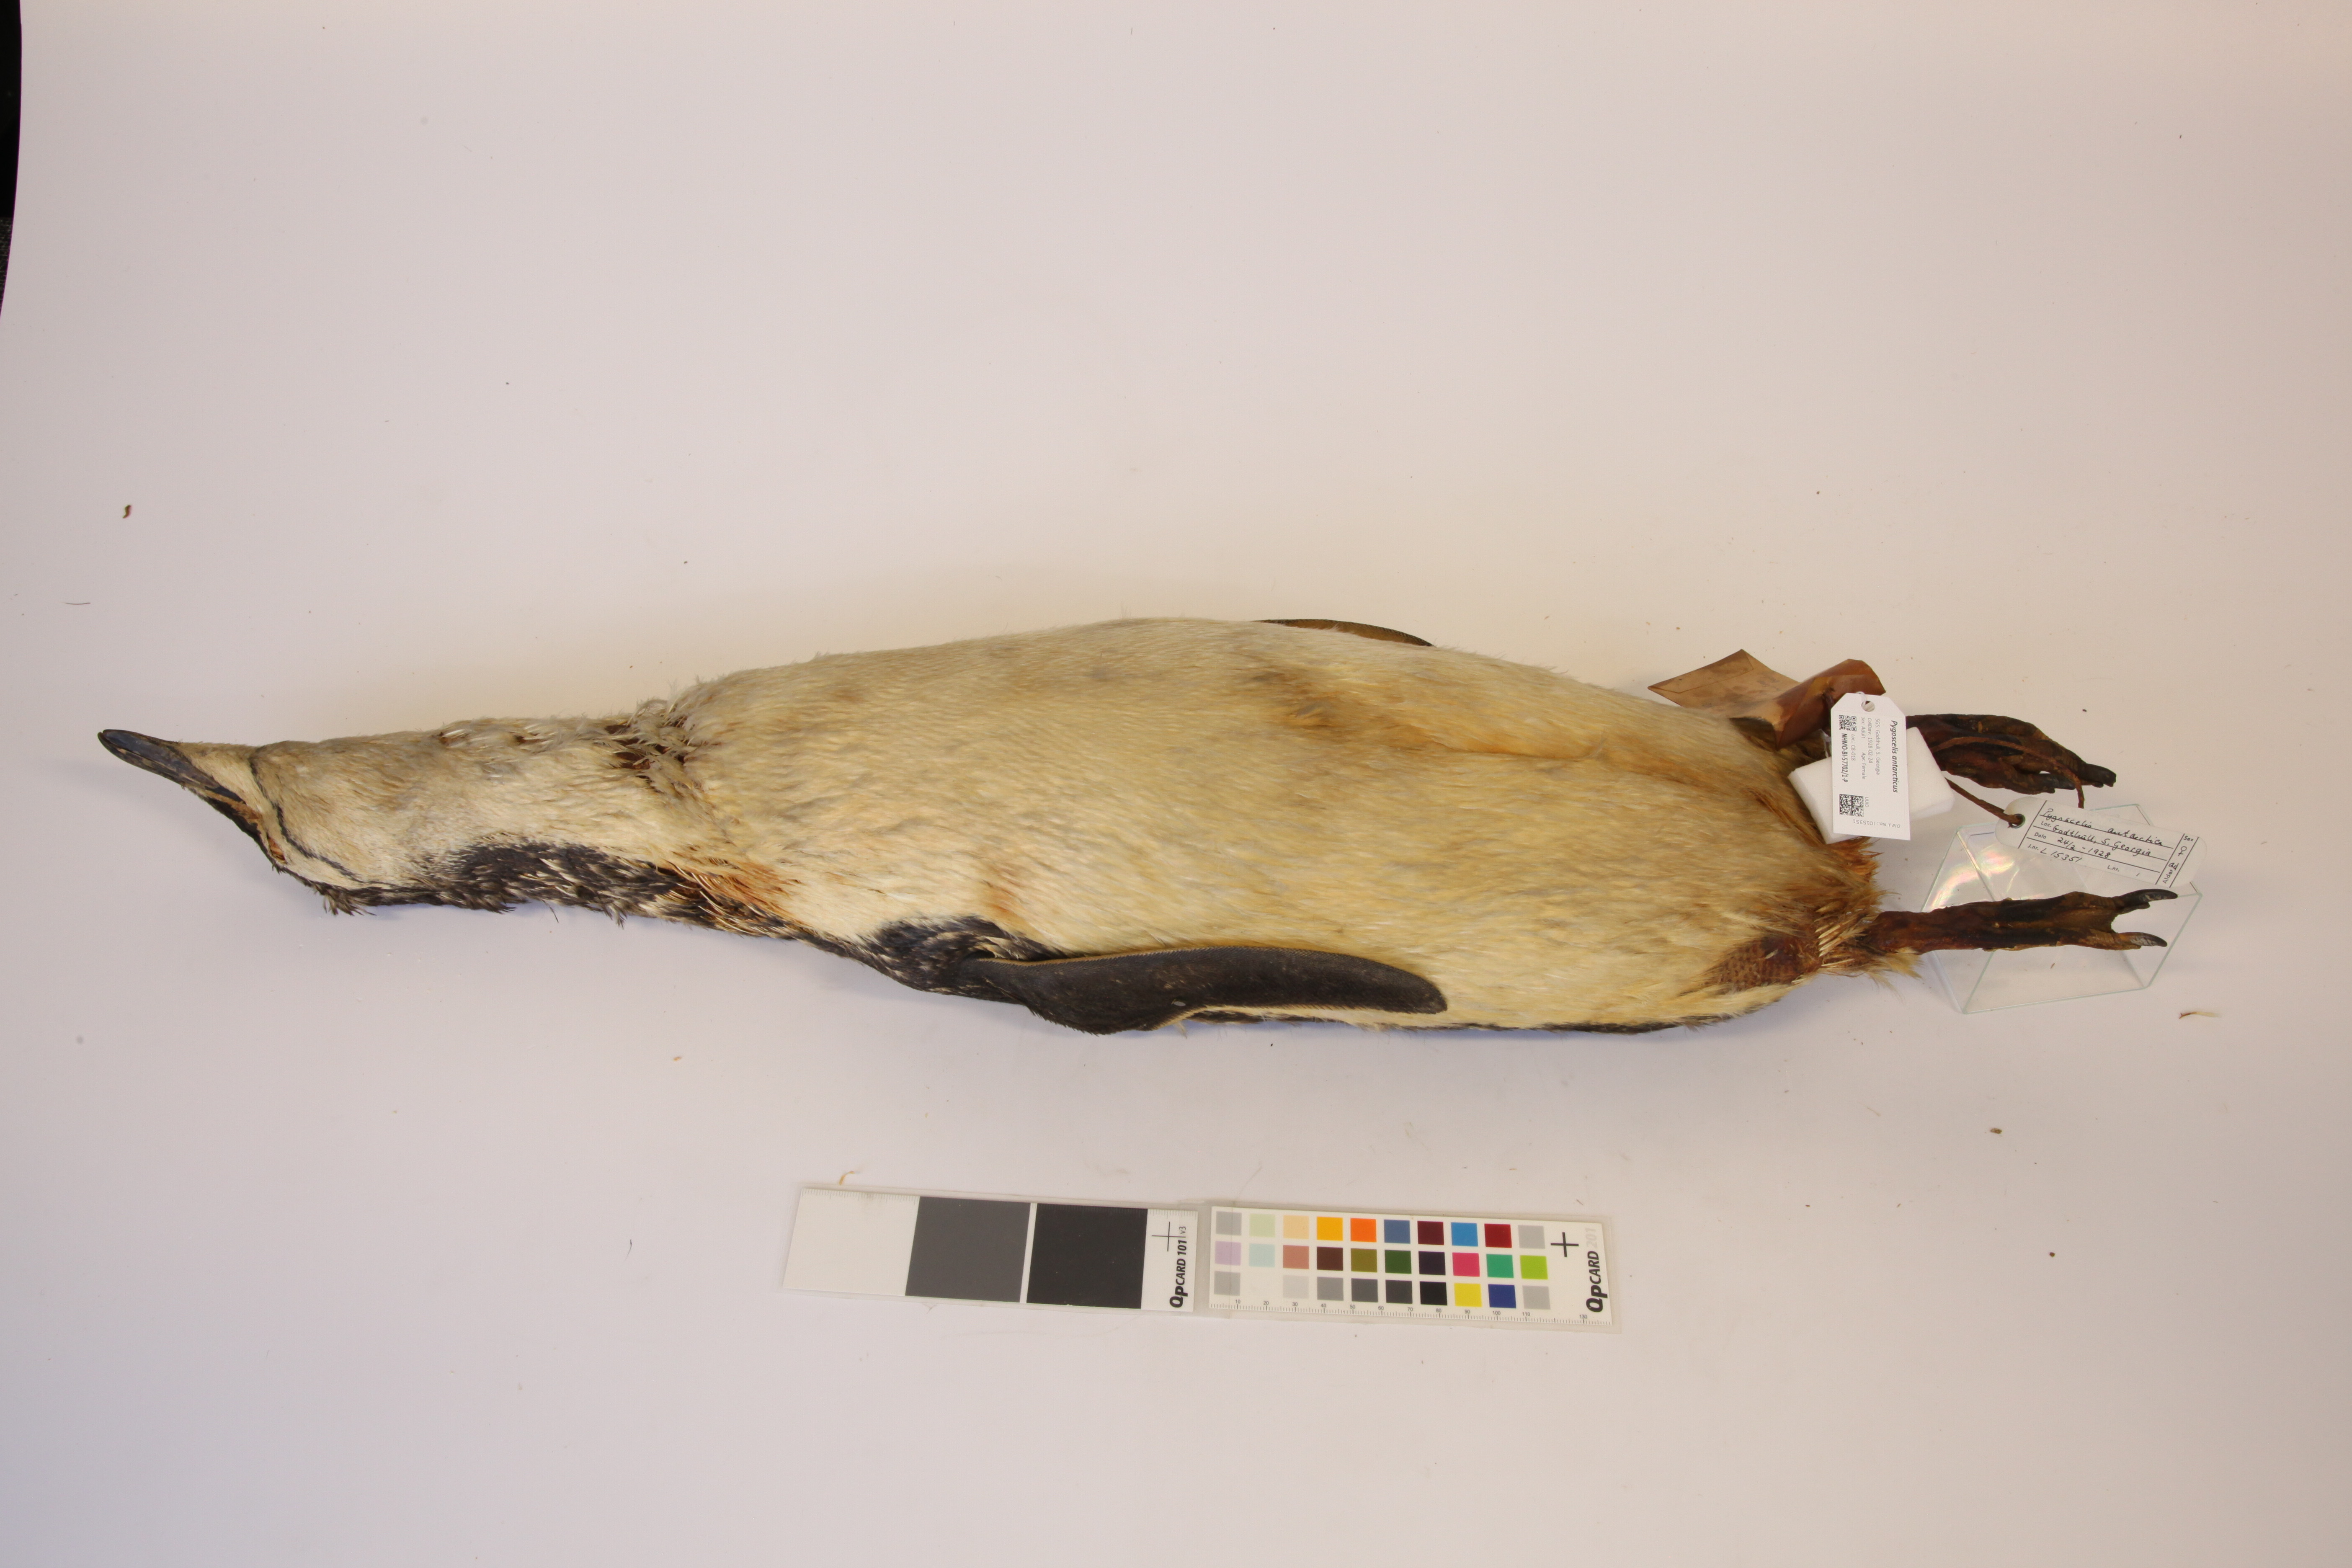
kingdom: Animalia
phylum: Chordata
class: Aves
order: Sphenisciformes
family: Spheniscidae
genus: Pygoscelis
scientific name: Pygoscelis antarcticus
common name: Chinstrap penguin
